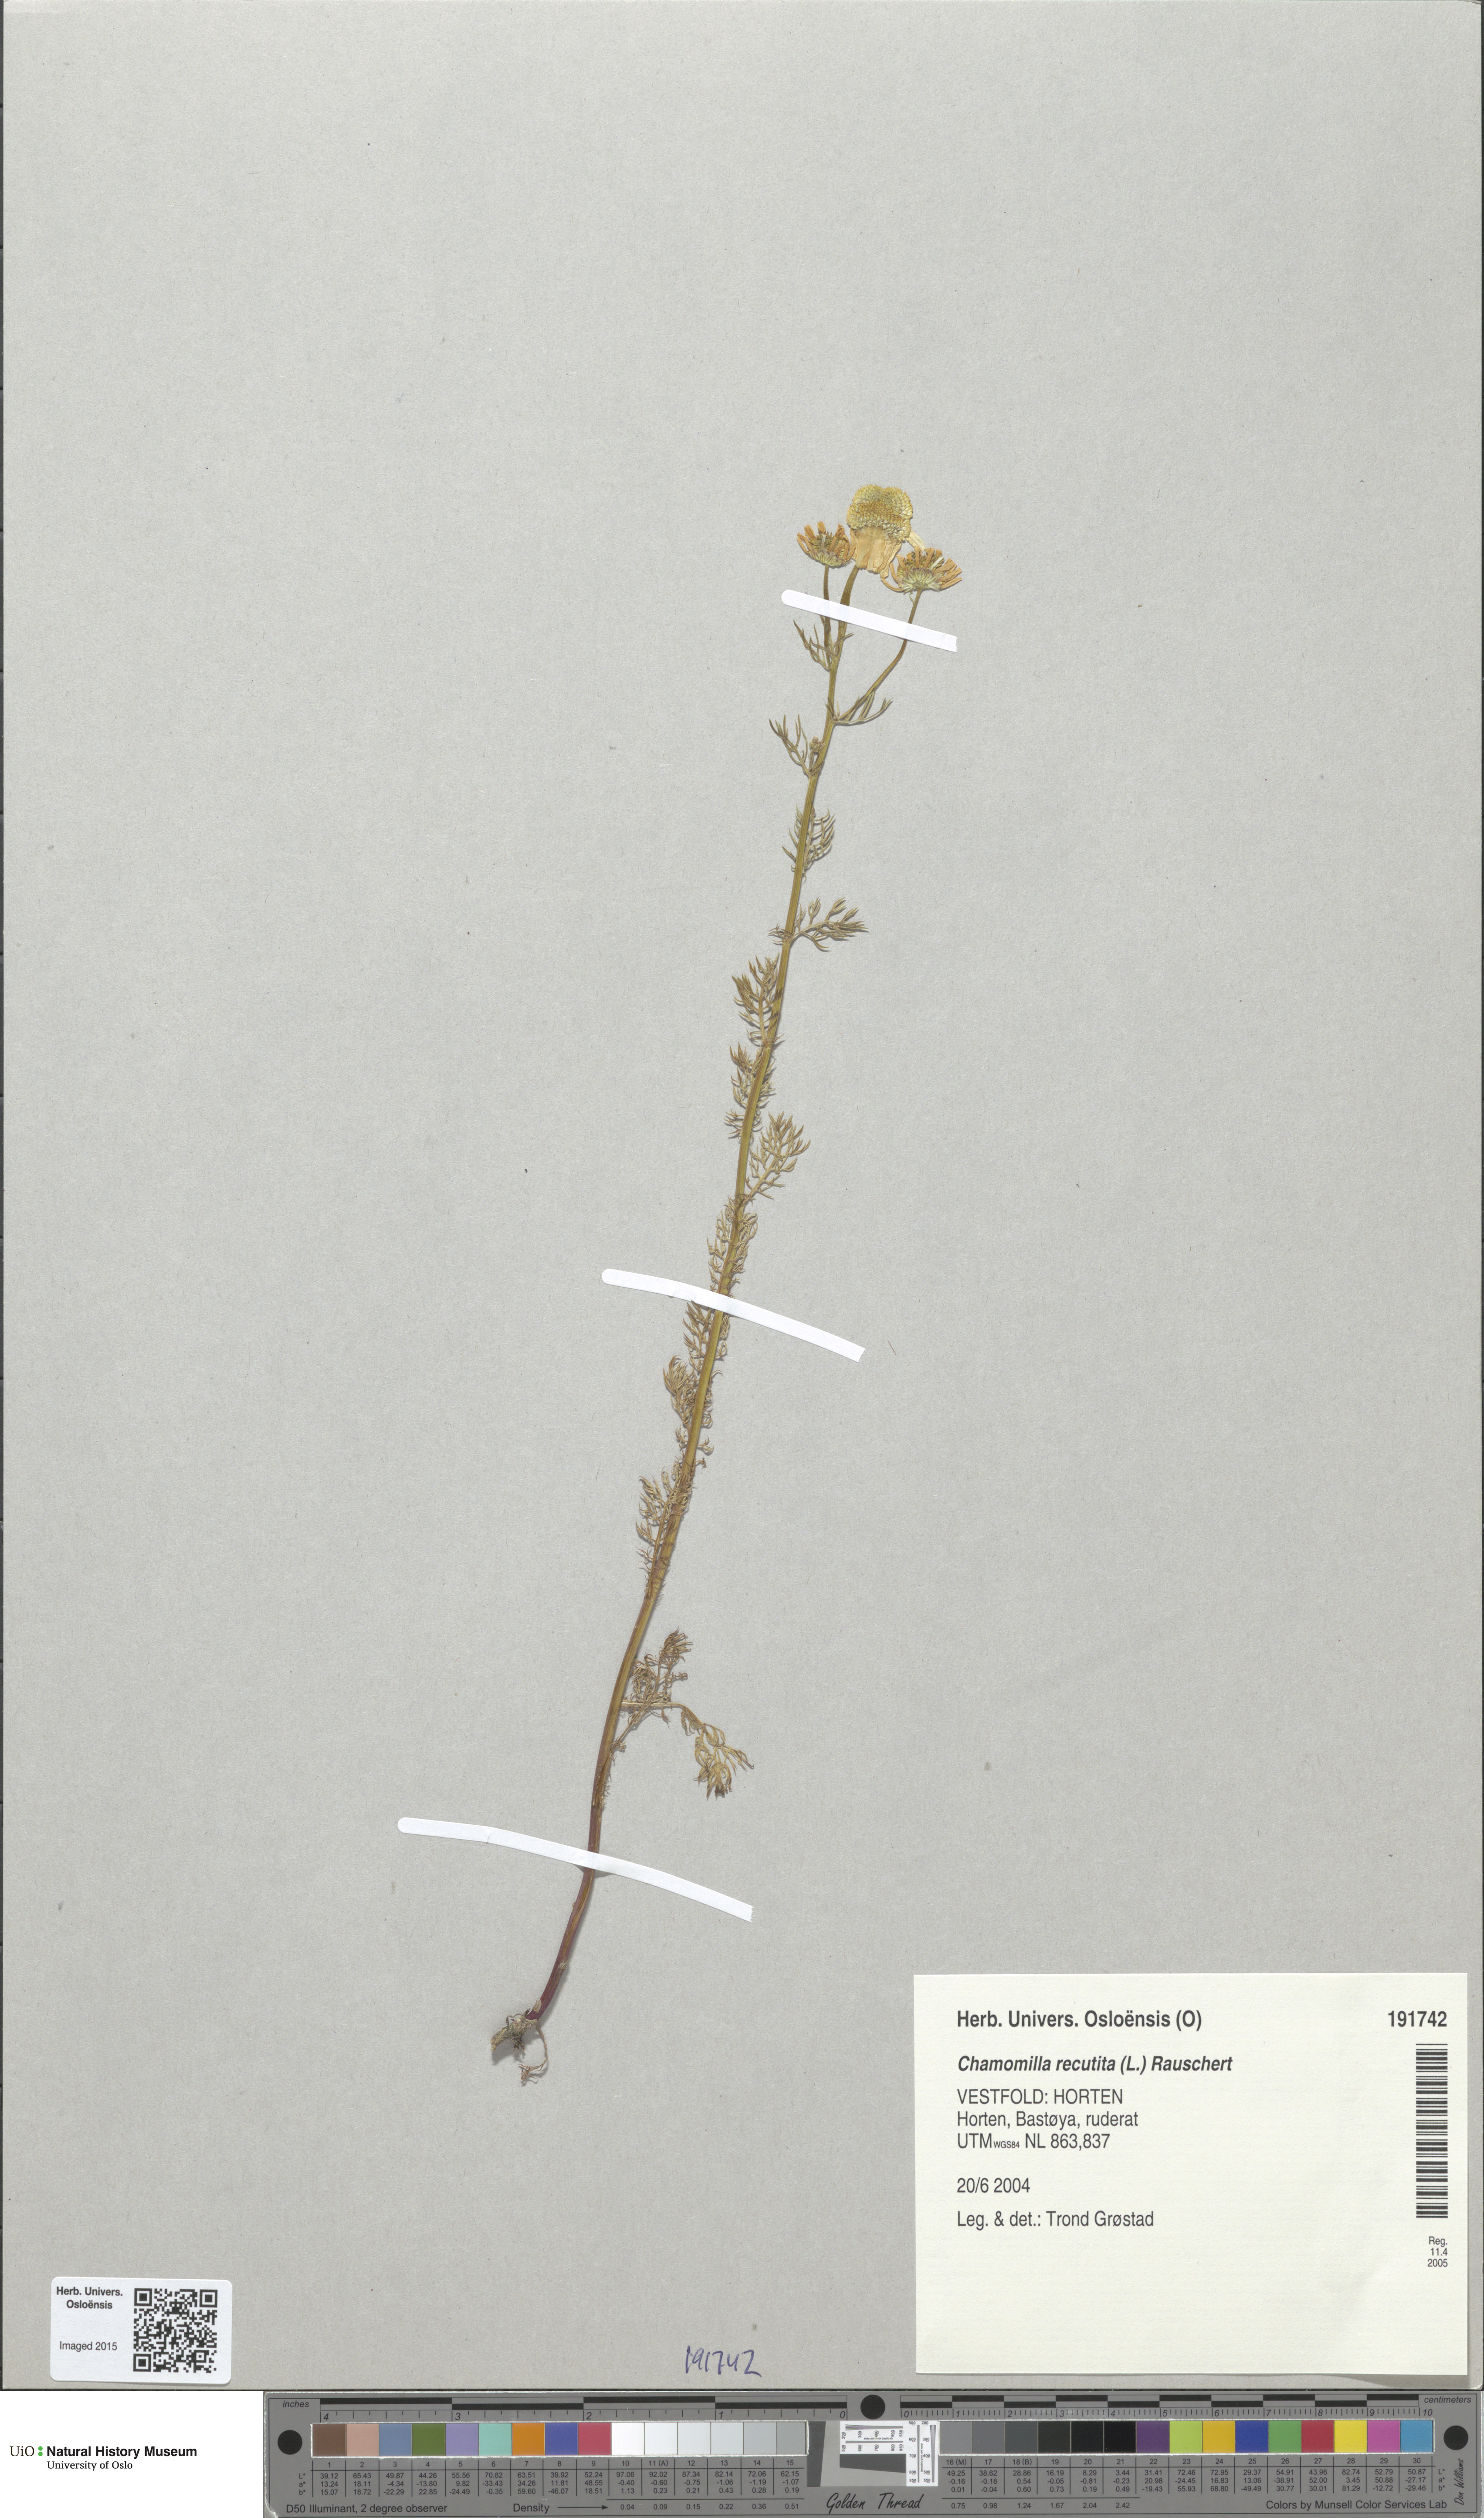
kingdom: Plantae
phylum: Tracheophyta
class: Magnoliopsida
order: Asterales
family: Asteraceae
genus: Matricaria
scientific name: Matricaria chamomilla
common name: Scented mayweed
